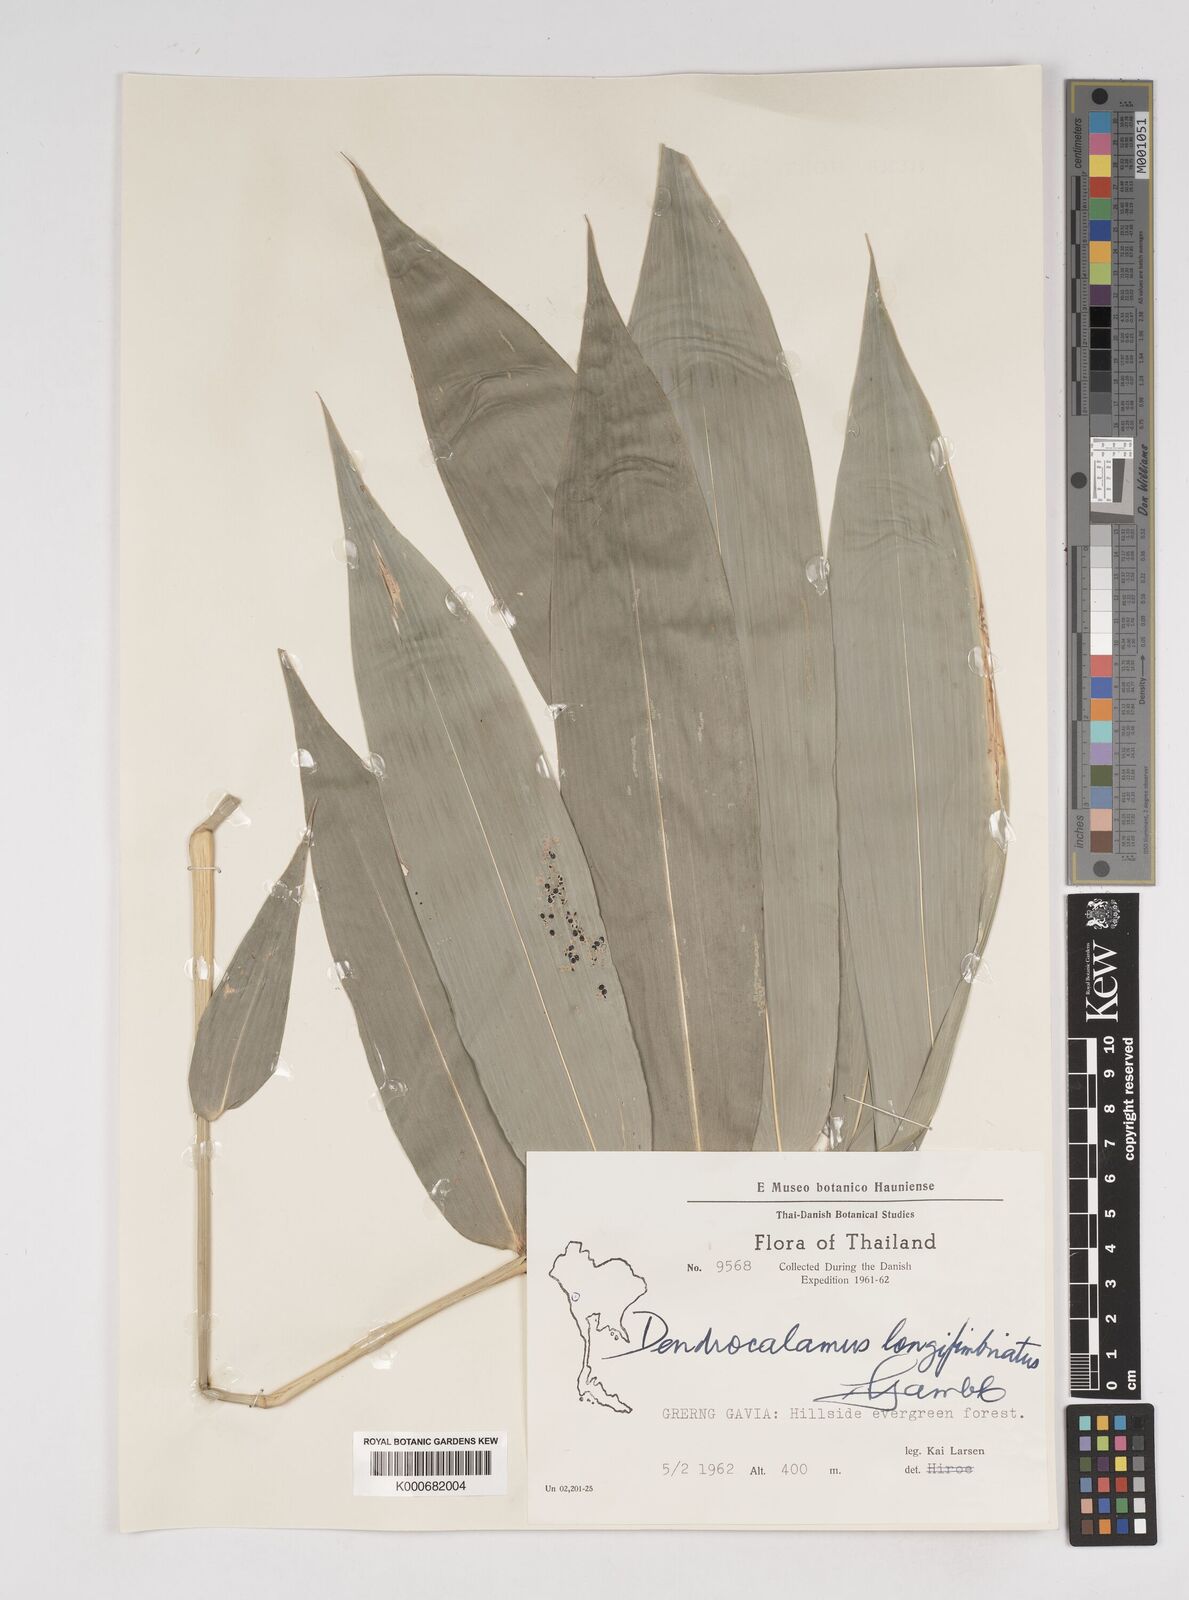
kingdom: Plantae
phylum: Tracheophyta
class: Liliopsida
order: Poales
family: Poaceae
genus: Dendrocalamus
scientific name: Dendrocalamus
